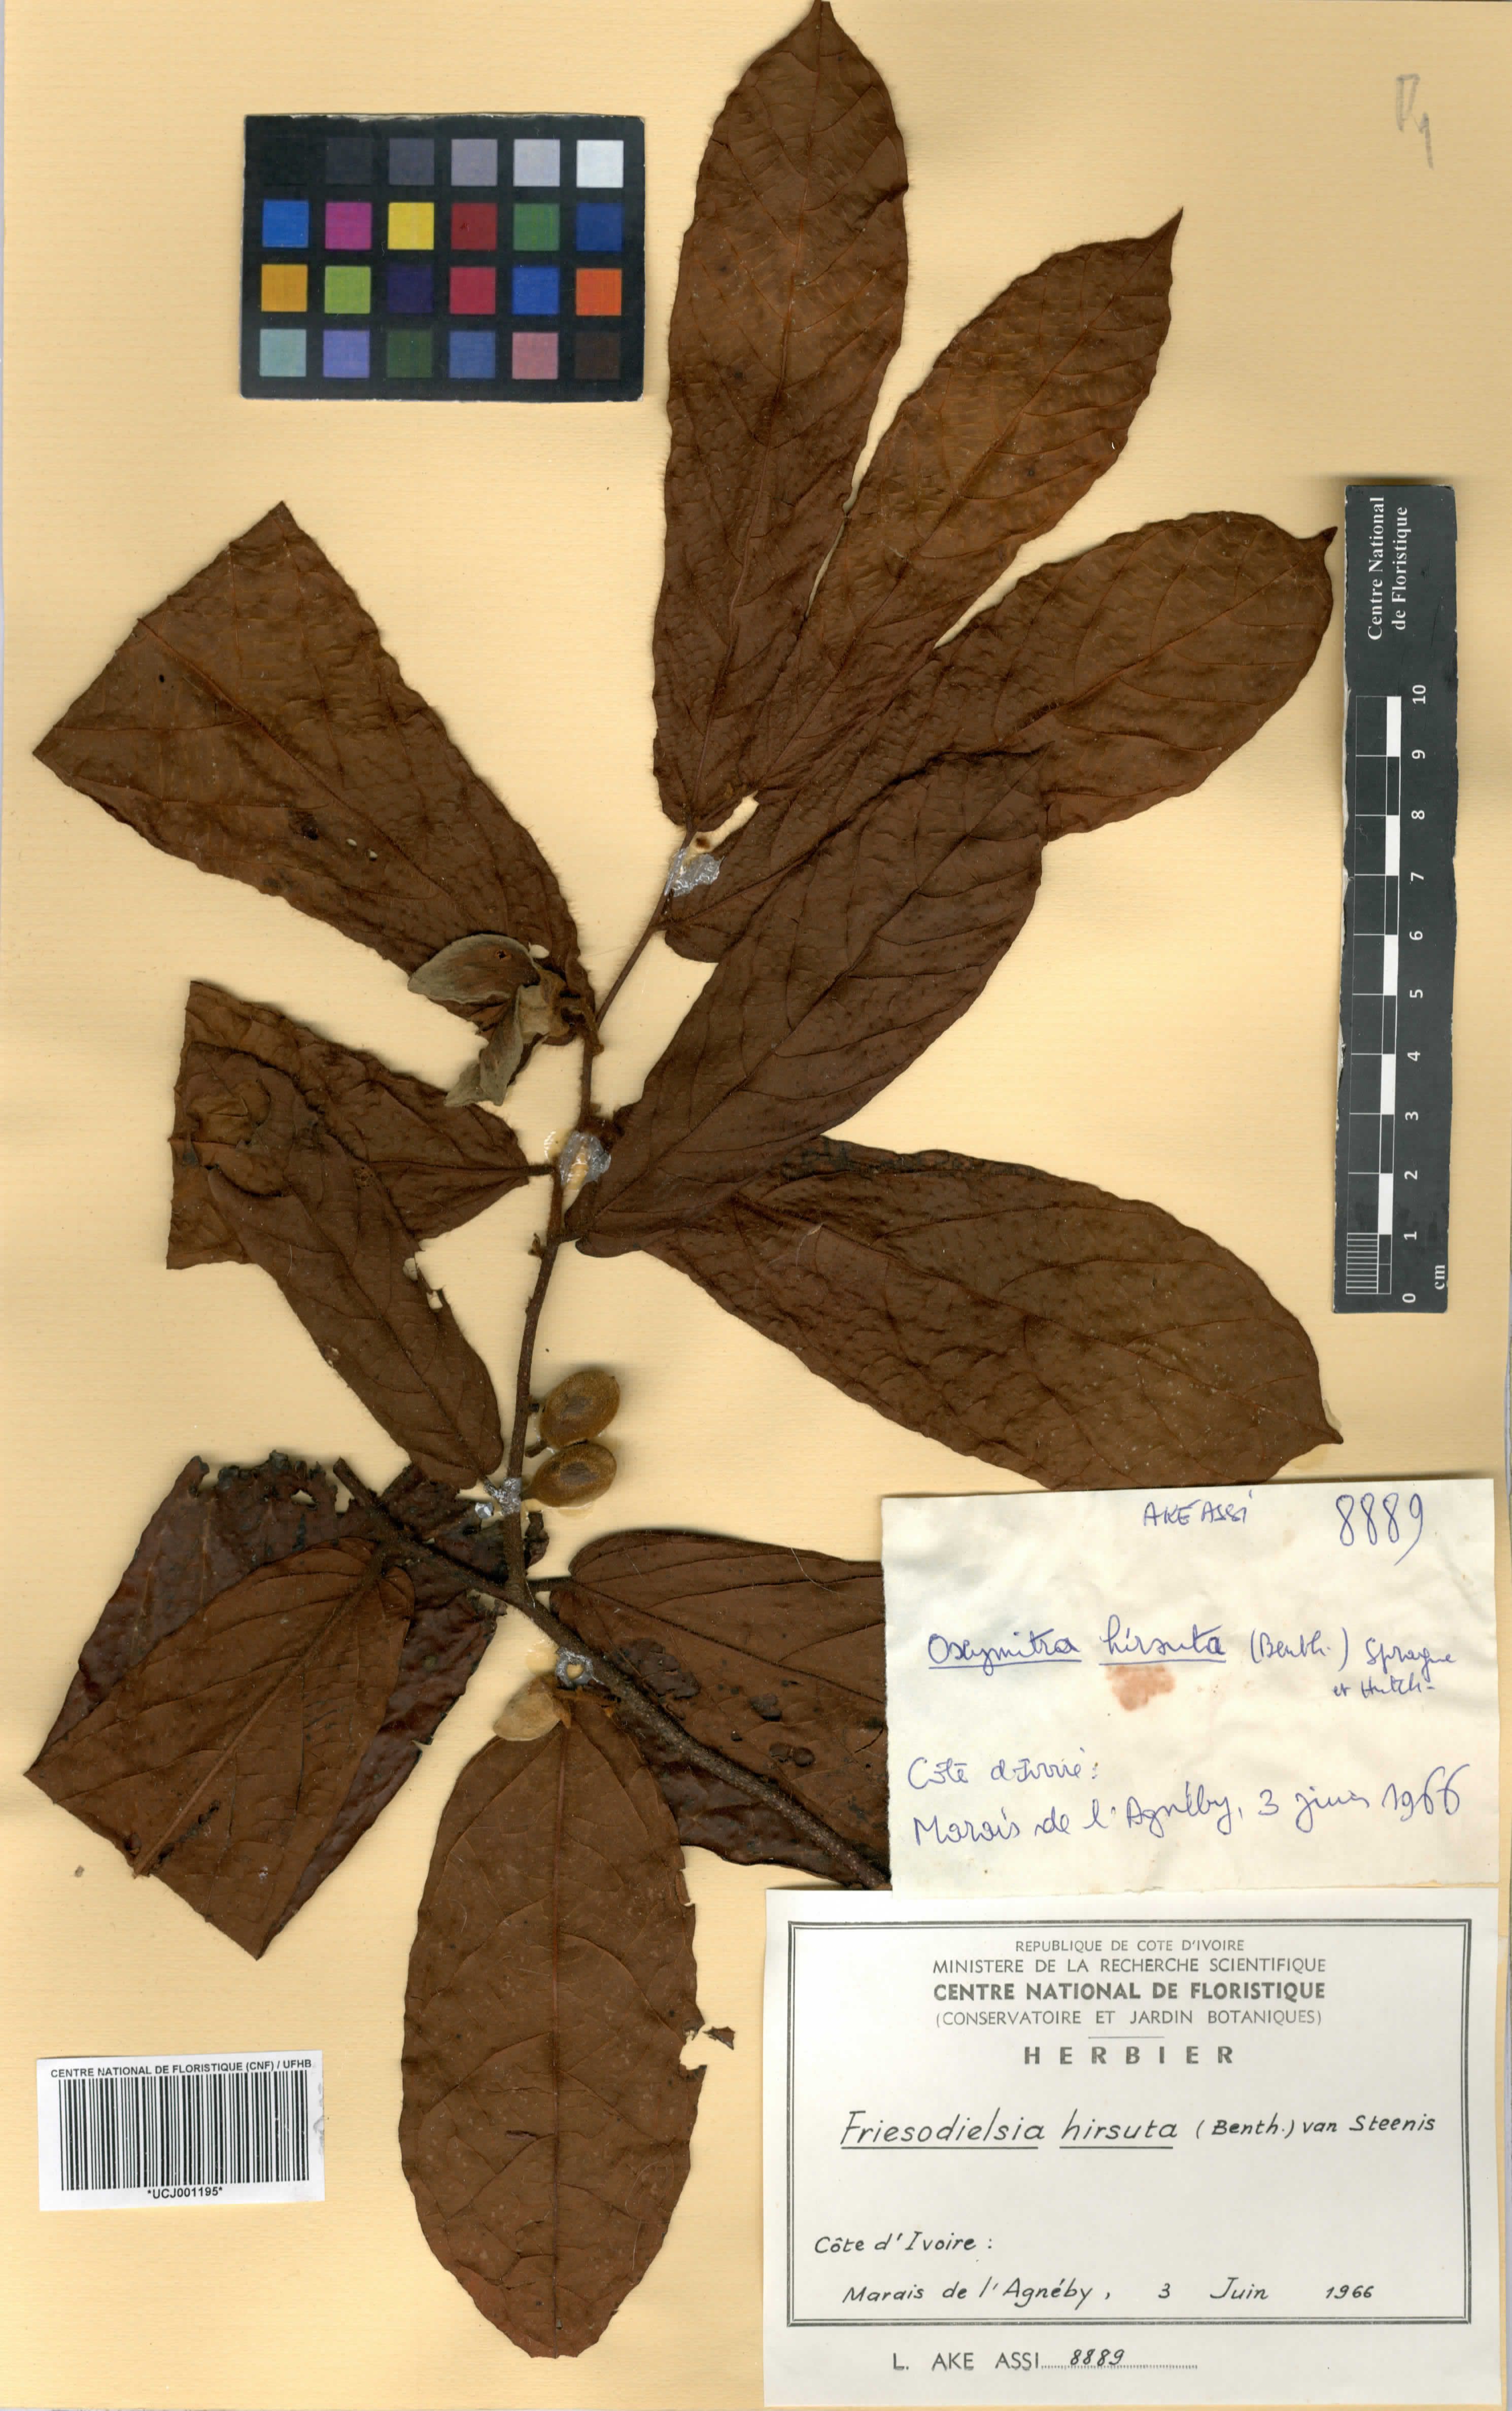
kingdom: Plantae
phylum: Tracheophyta
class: Magnoliopsida
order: Magnoliales
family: Annonaceae
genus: Friesodielsia
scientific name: Friesodielsia hirsuta
